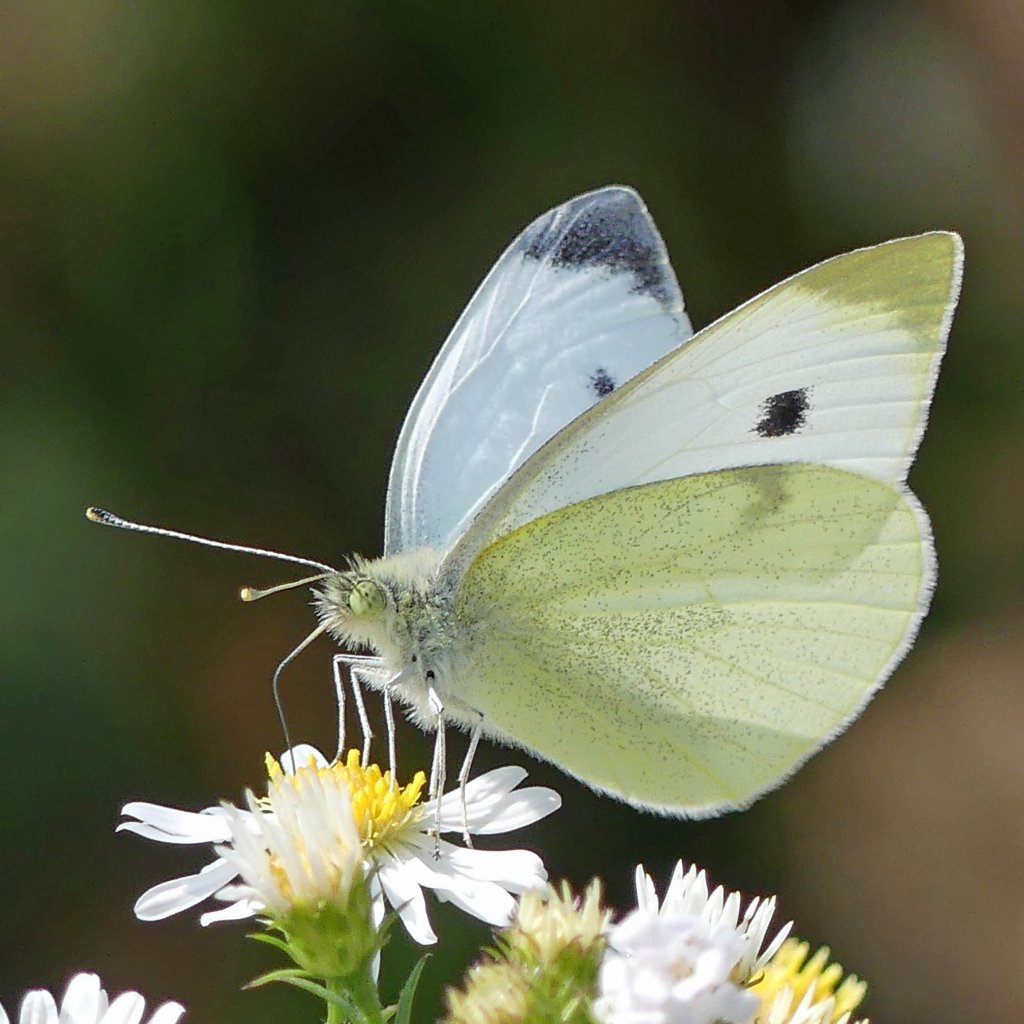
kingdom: Animalia
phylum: Arthropoda
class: Insecta
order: Lepidoptera
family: Pieridae
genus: Pieris
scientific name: Pieris rapae
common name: Cabbage White
